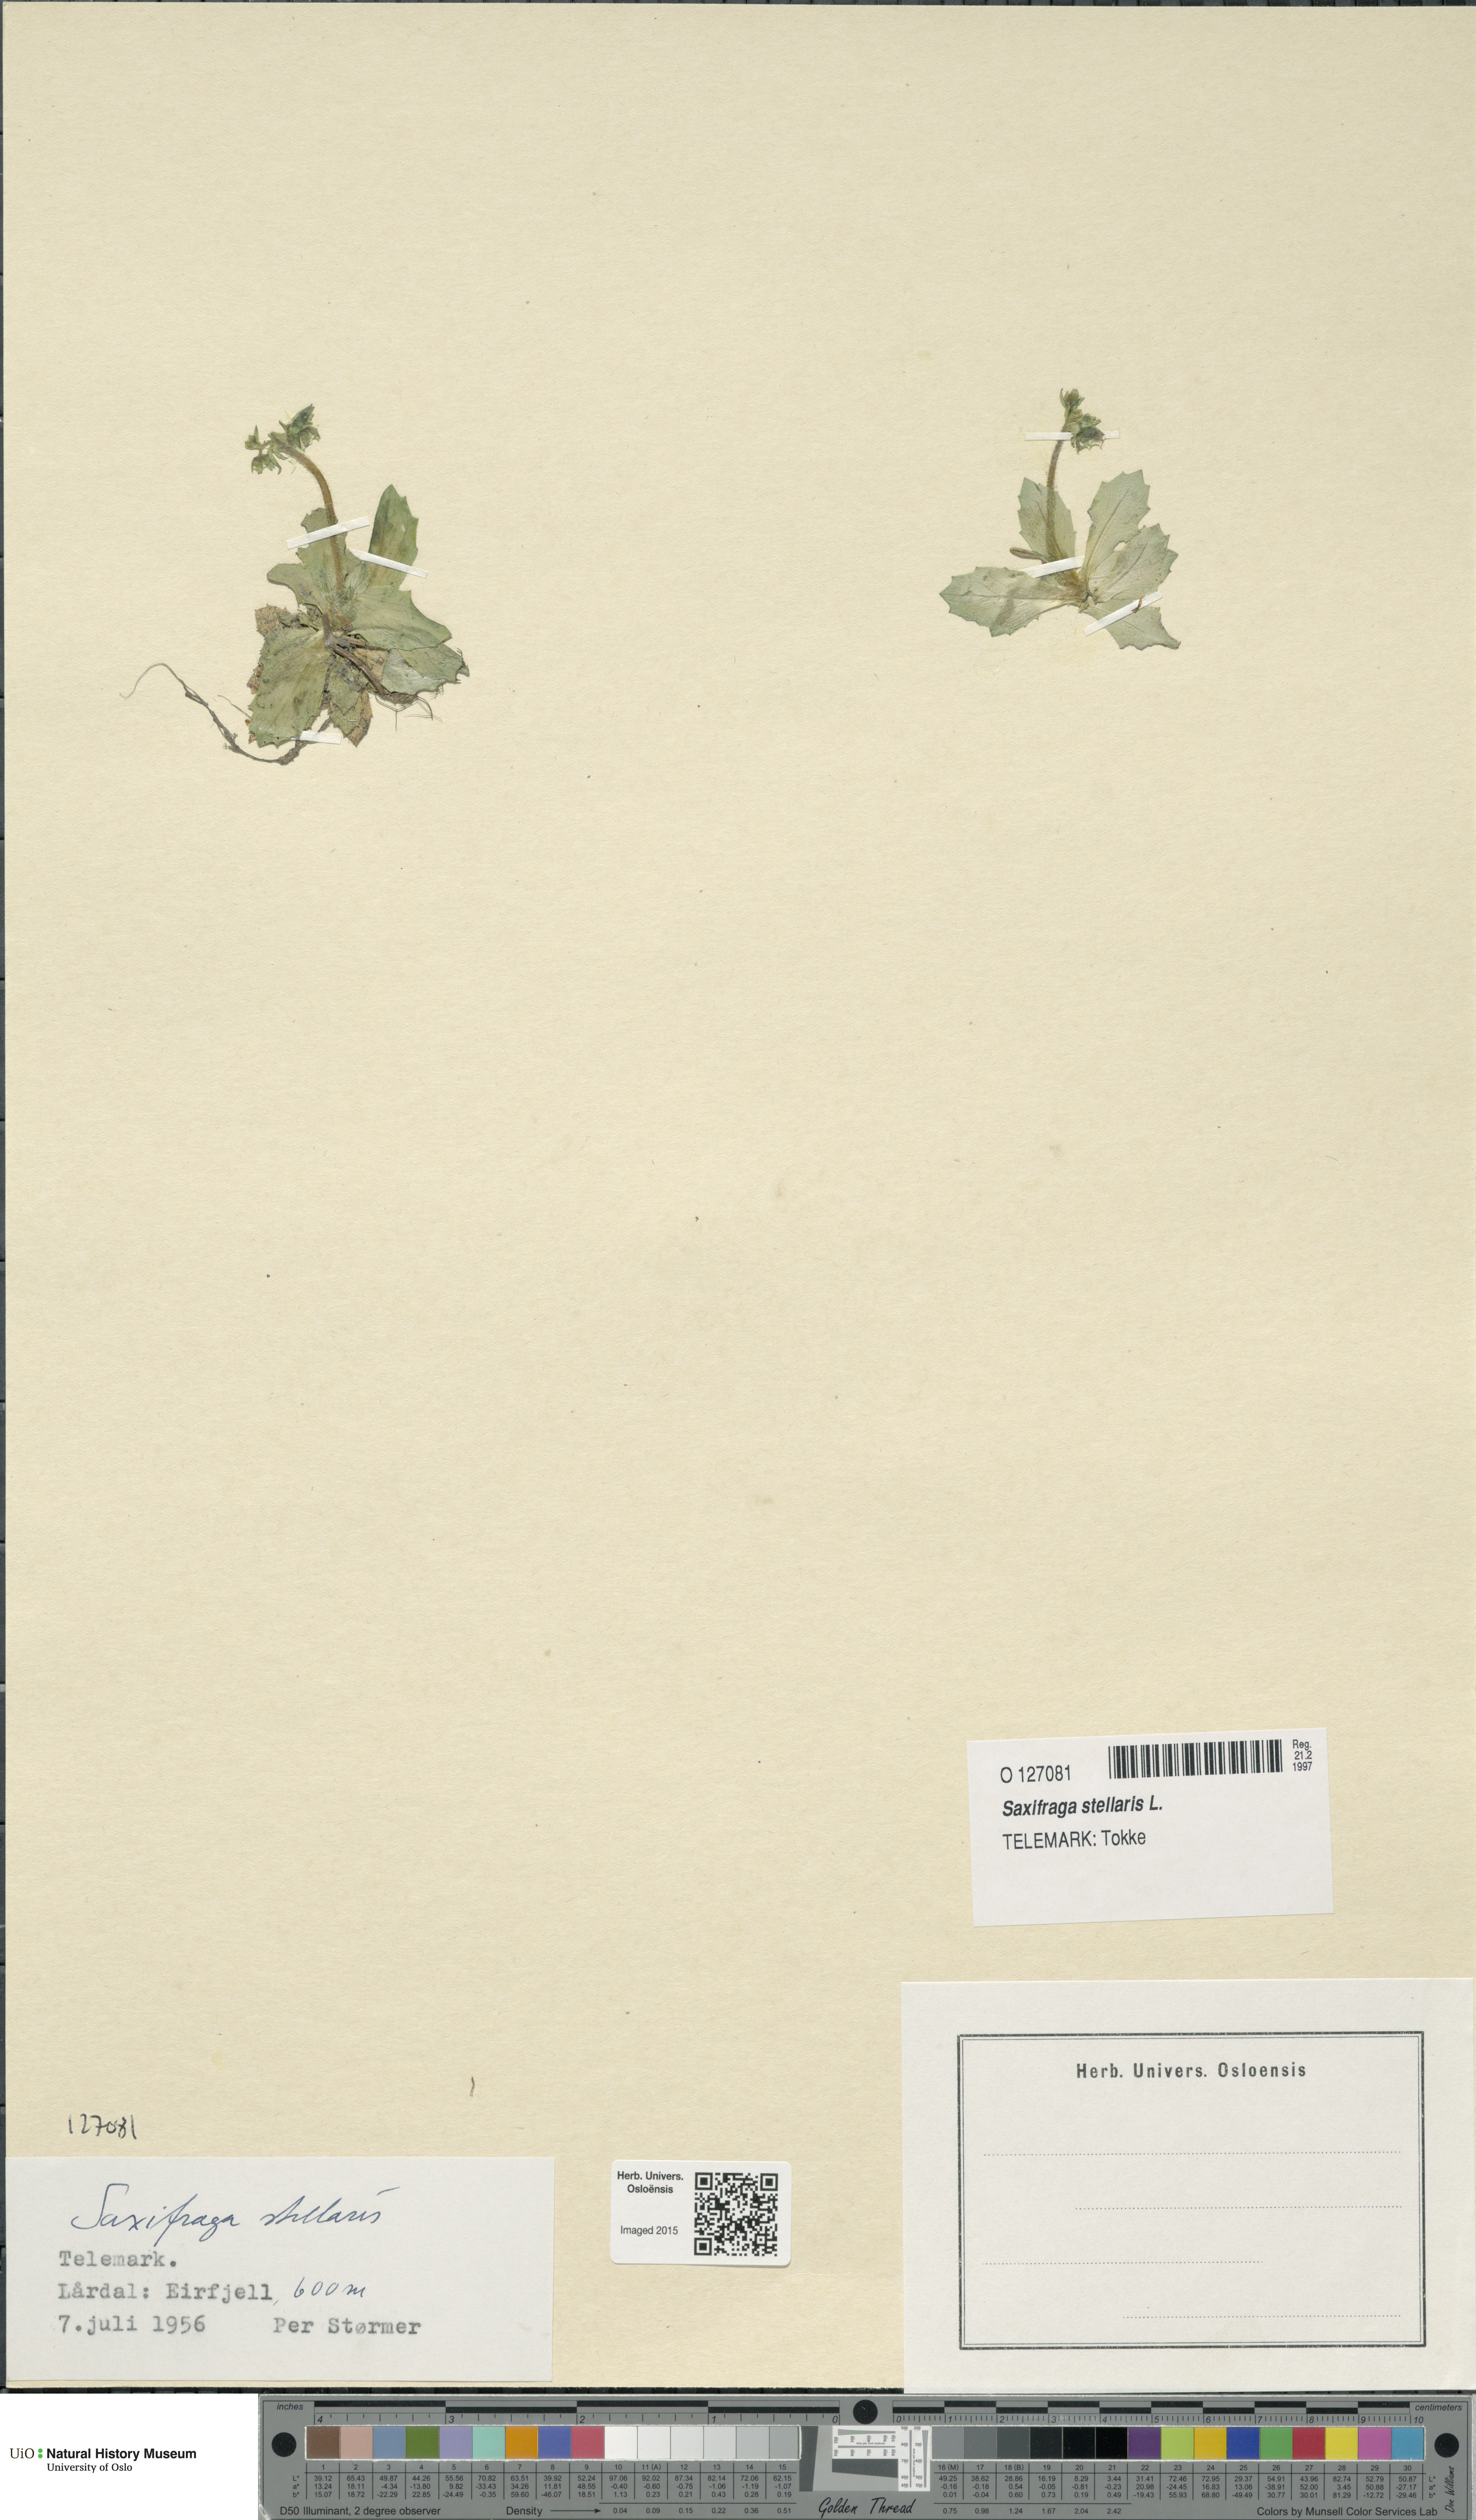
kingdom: Plantae
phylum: Tracheophyta
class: Magnoliopsida
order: Saxifragales
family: Saxifragaceae
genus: Micranthes
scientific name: Micranthes stellaris
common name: Starry saxifrage
